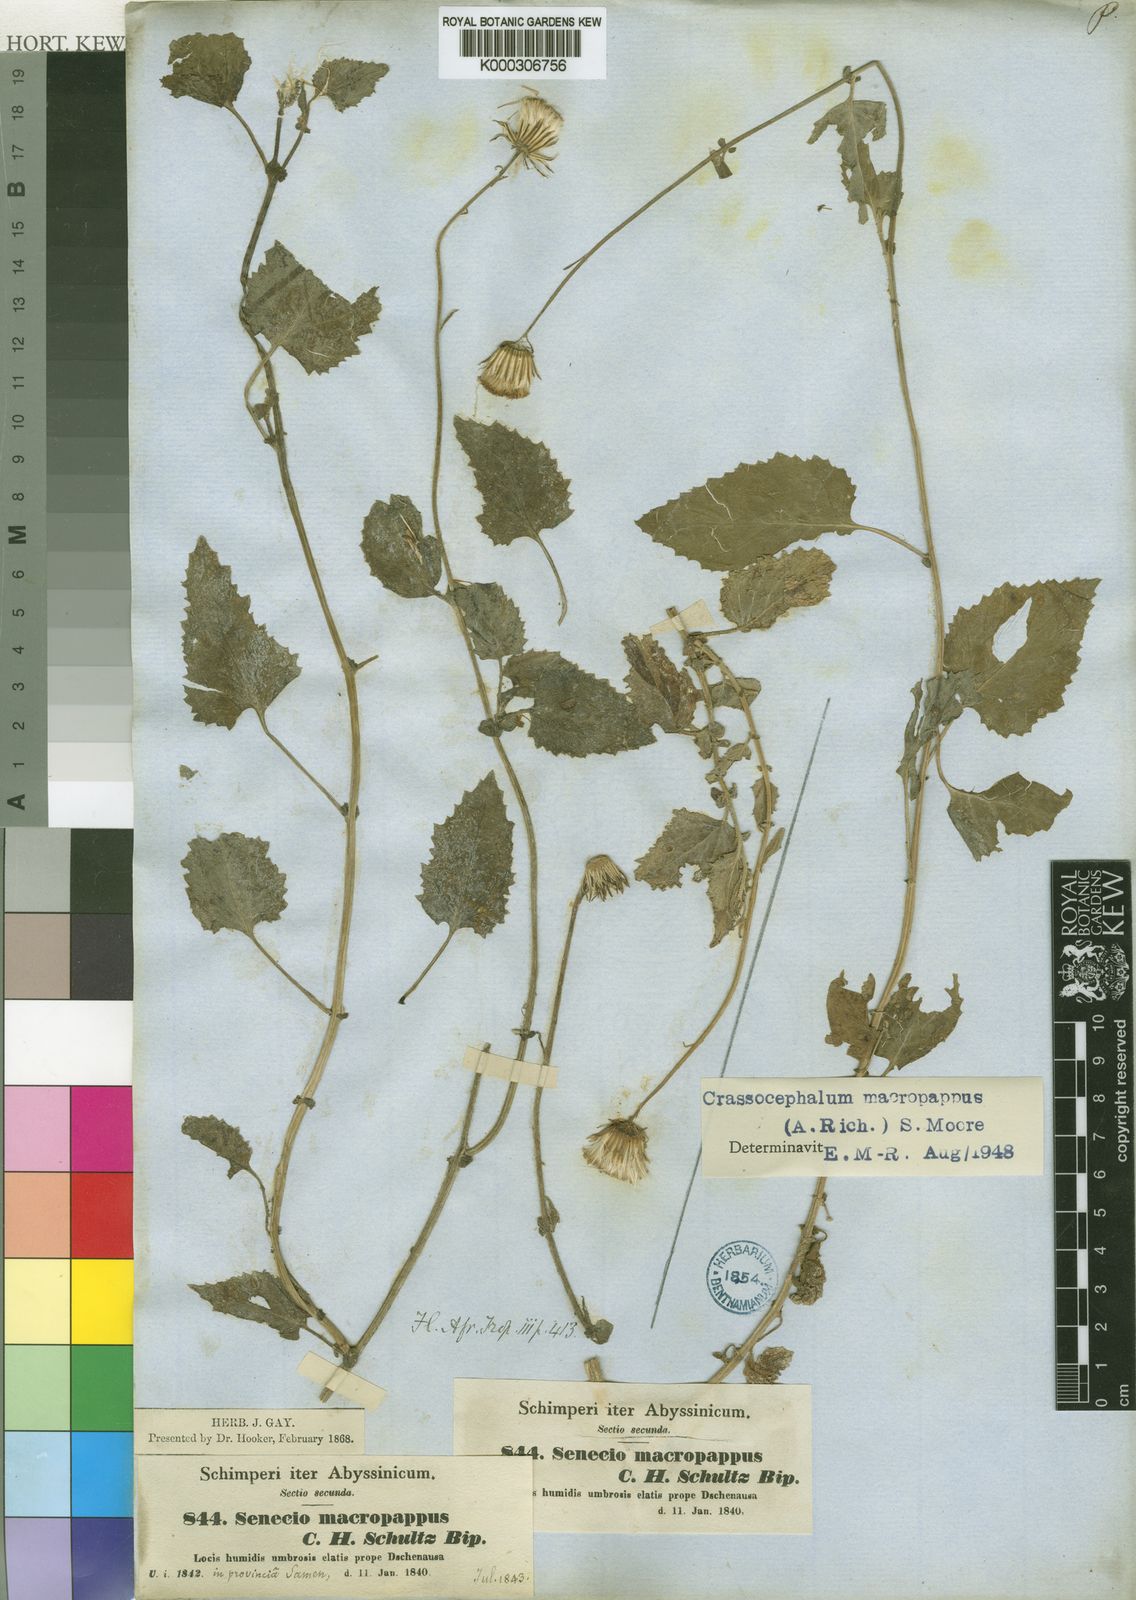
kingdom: Plantae
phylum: Tracheophyta
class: Magnoliopsida
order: Asterales
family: Asteraceae
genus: Crassocephalum
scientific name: Crassocephalum macropappus
